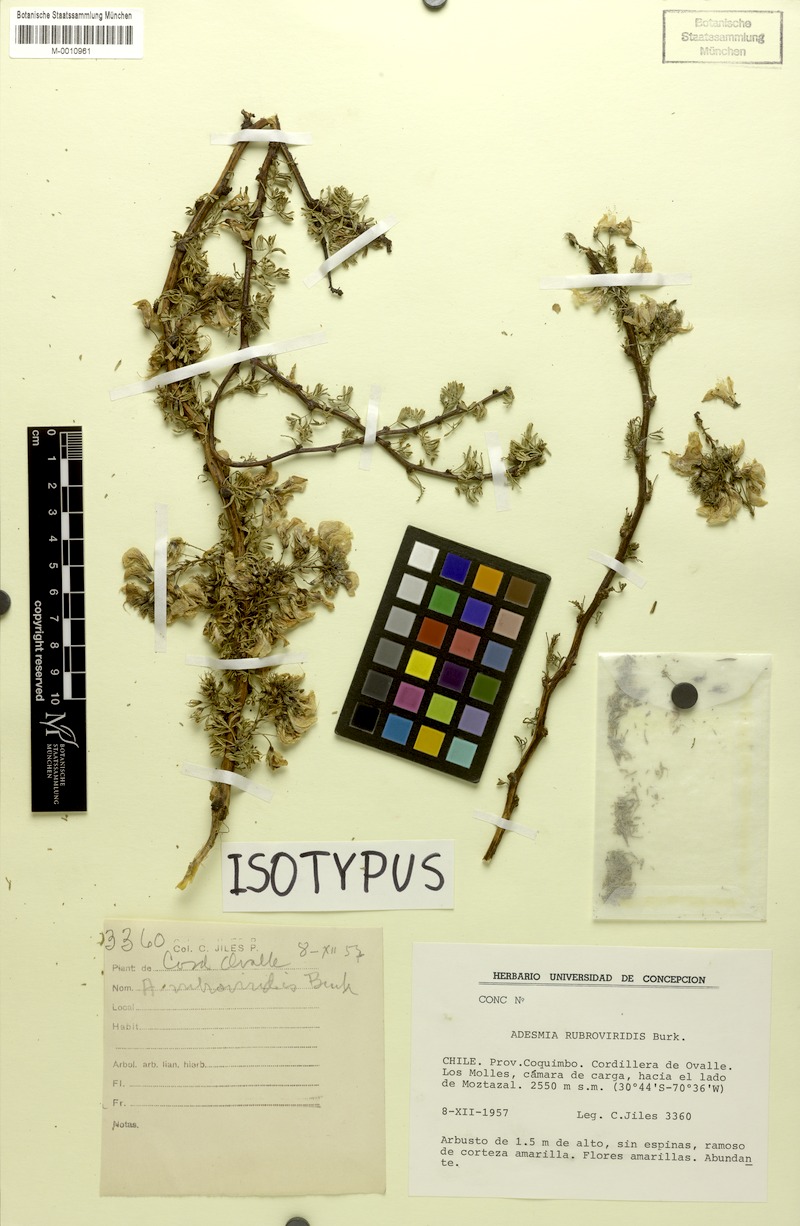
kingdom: Plantae
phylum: Tracheophyta
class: Magnoliopsida
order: Fabales
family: Fabaceae
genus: Adesmia
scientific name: Adesmia rubroviridis
